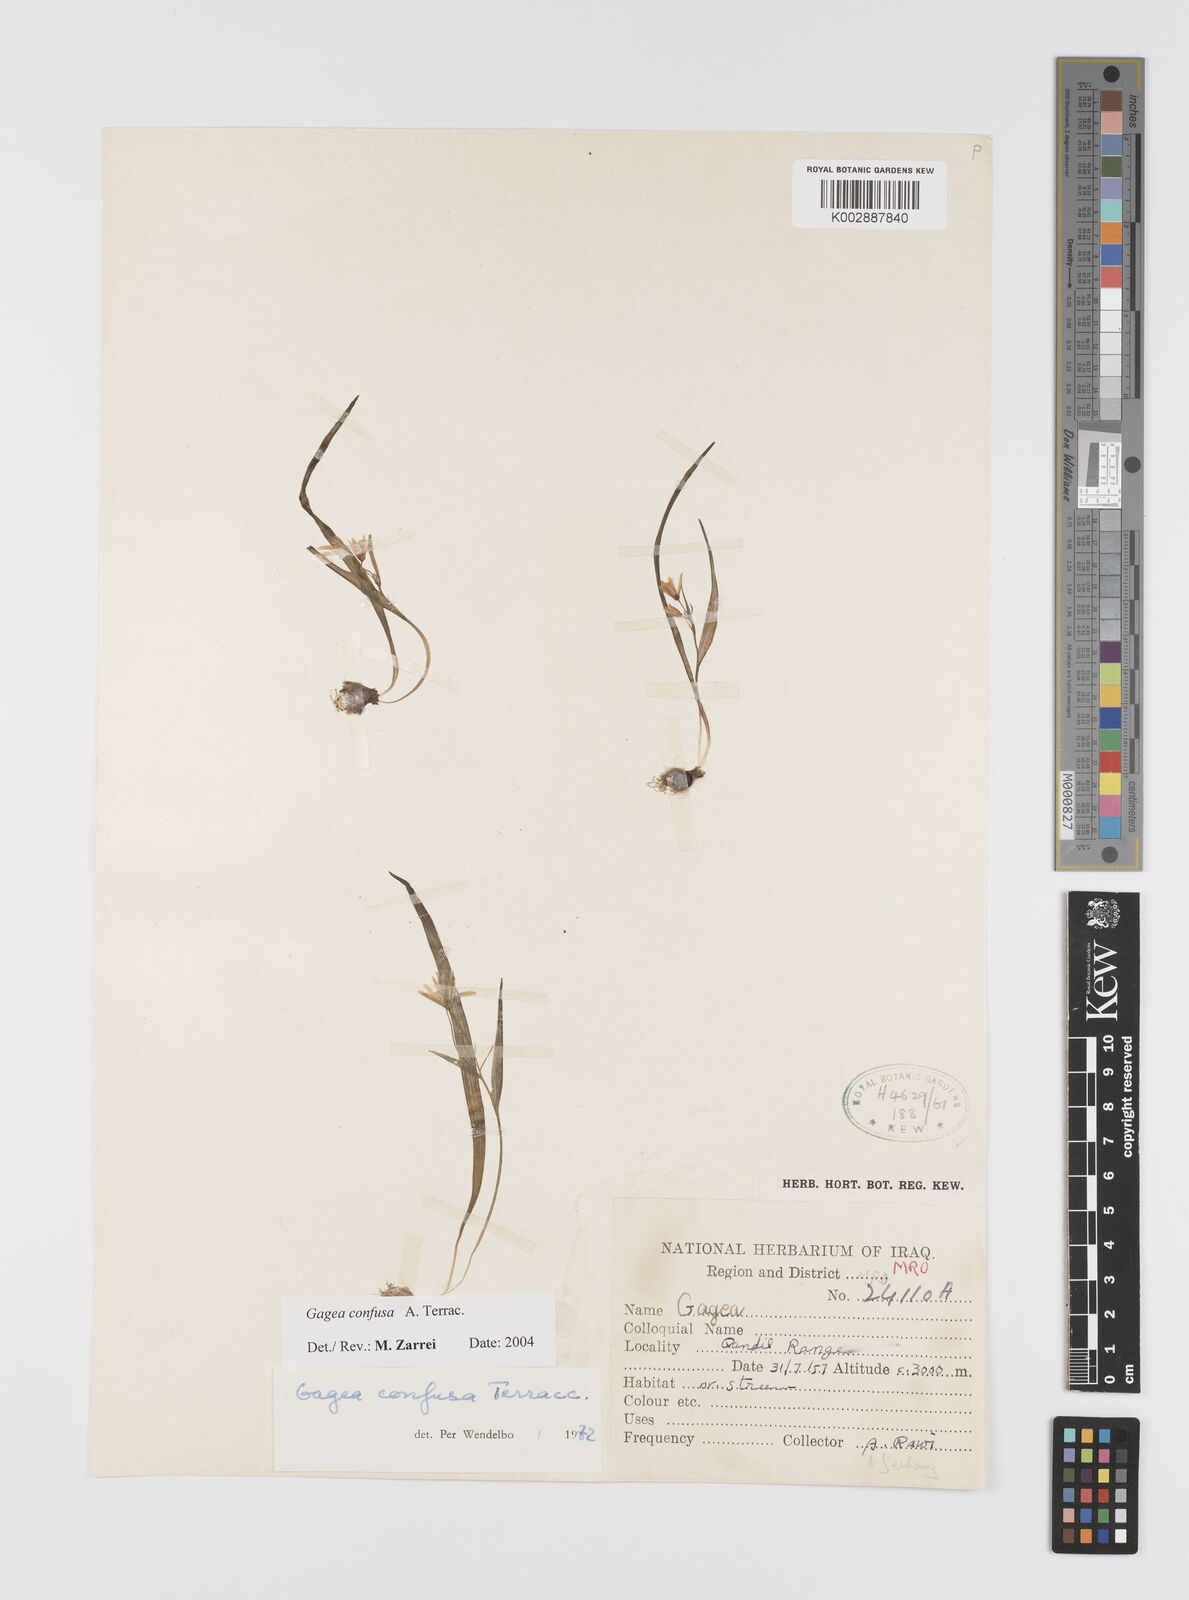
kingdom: Plantae
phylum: Tracheophyta
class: Liliopsida
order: Liliales
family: Liliaceae
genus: Gagea
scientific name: Gagea confusa
